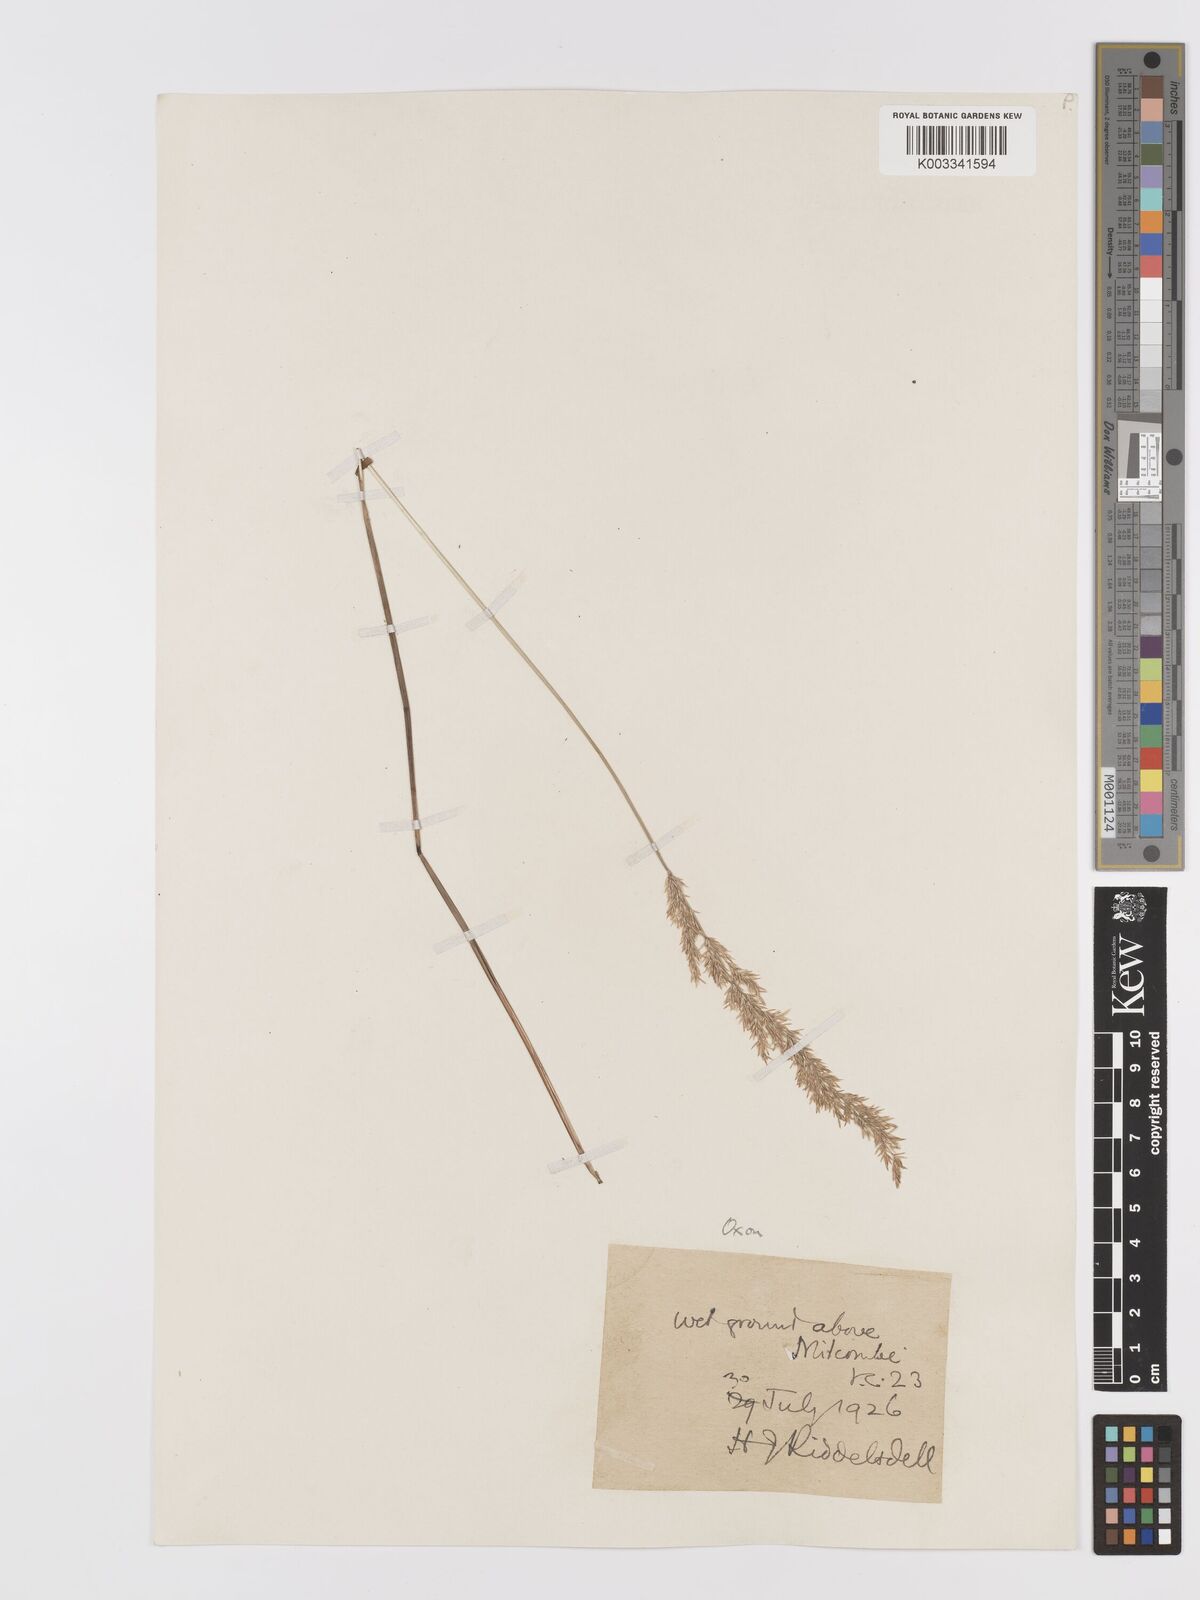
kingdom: Plantae
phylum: Tracheophyta
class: Liliopsida
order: Poales
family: Poaceae
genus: Agrostis
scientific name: Agrostis stolonifera
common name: Creeping bentgrass
